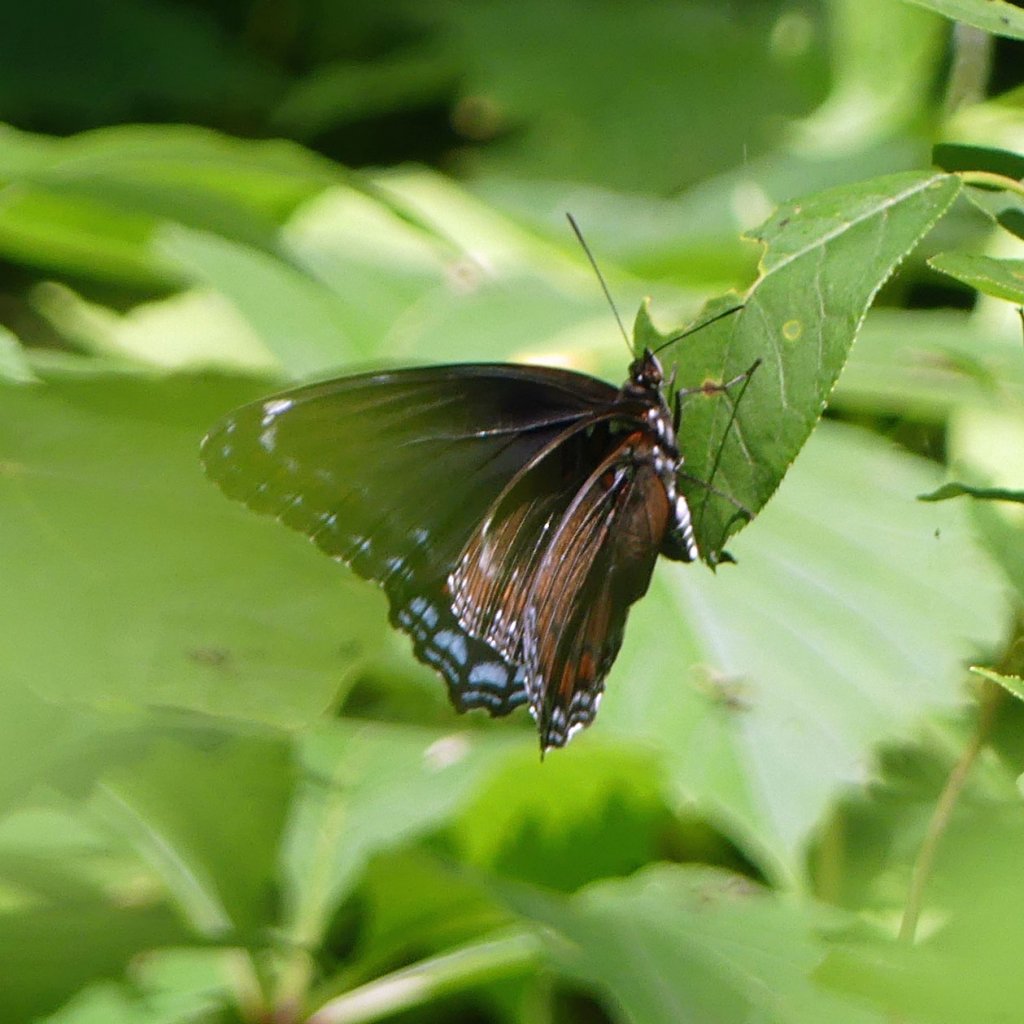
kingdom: Animalia
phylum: Arthropoda
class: Insecta
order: Lepidoptera
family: Nymphalidae
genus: Limenitis
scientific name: Limenitis astyanax
